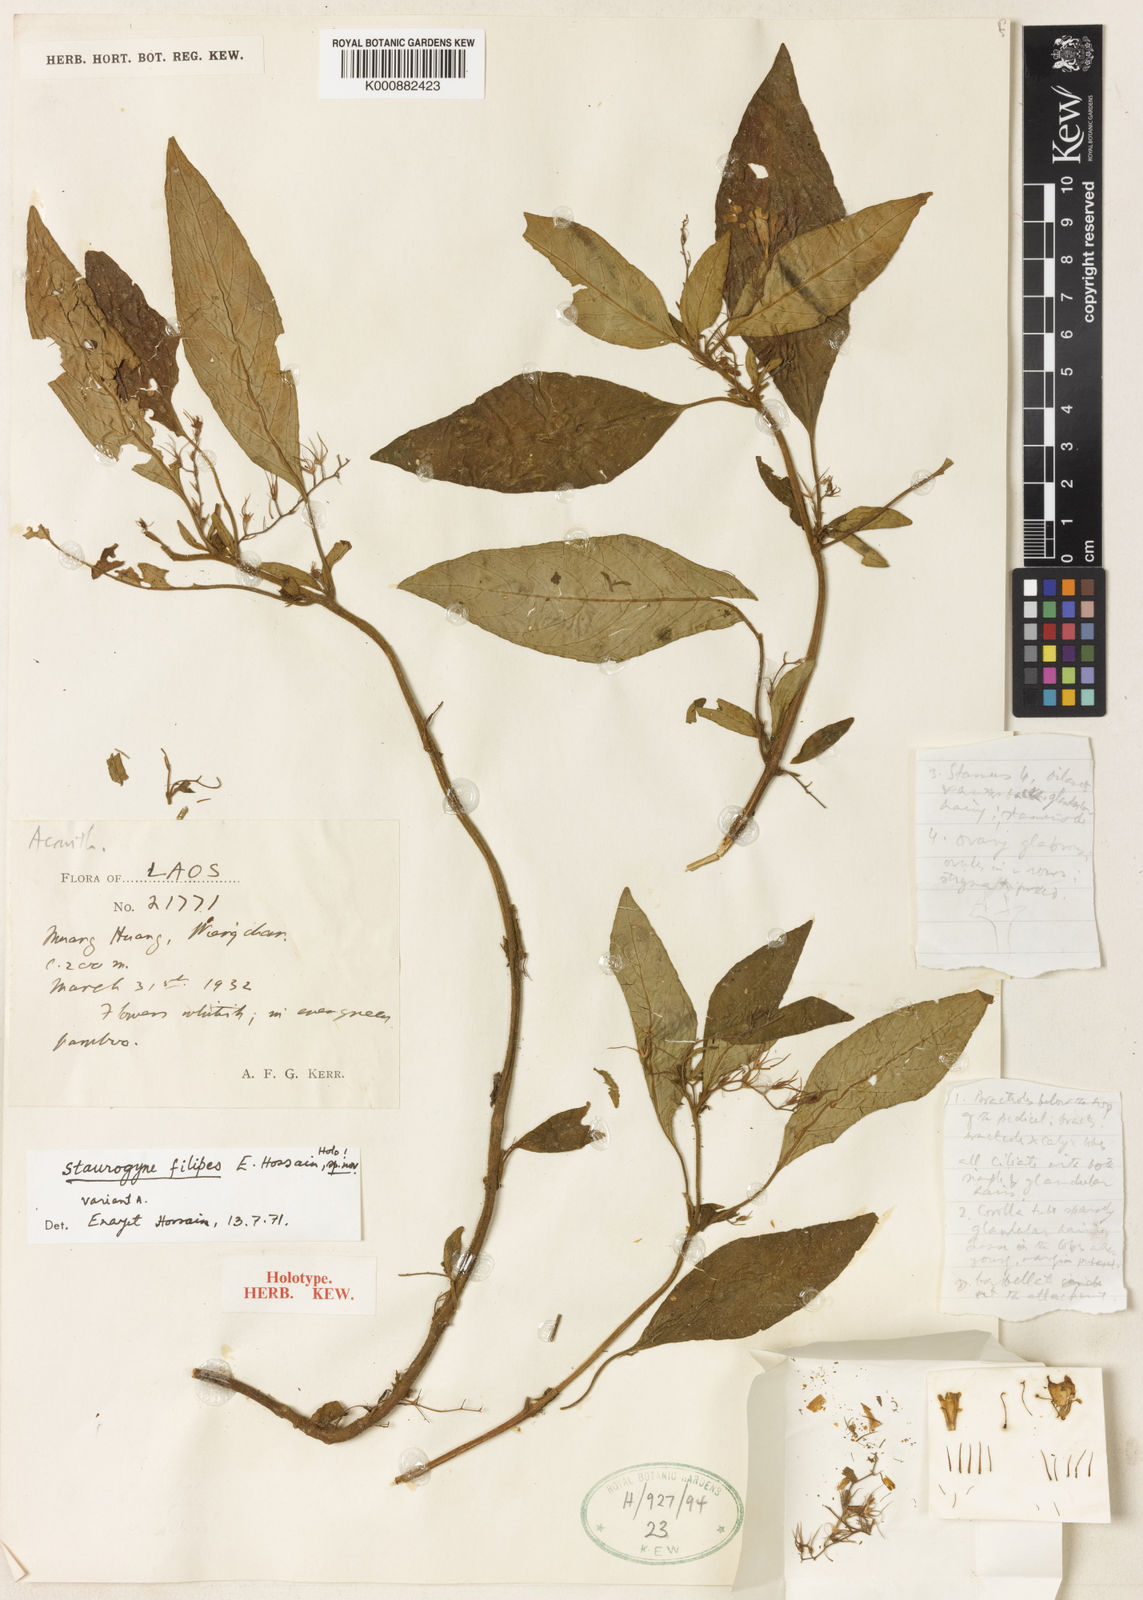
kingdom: Plantae
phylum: Tracheophyta
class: Magnoliopsida
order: Lamiales
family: Acanthaceae
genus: Staurogyne
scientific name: Staurogyne filipes
